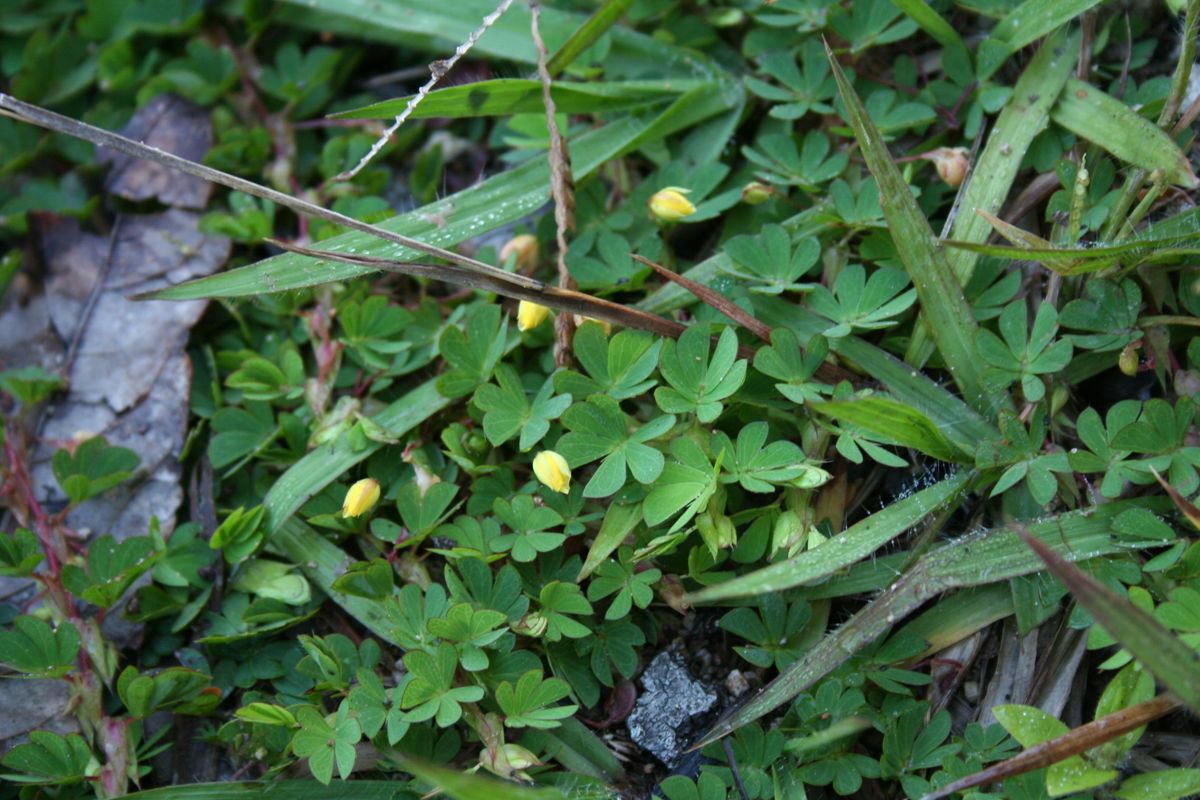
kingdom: Plantae
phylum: Tracheophyta
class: Magnoliopsida
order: Fabales
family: Fabaceae
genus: Chamaecrista
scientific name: Chamaecrista kunthiana
